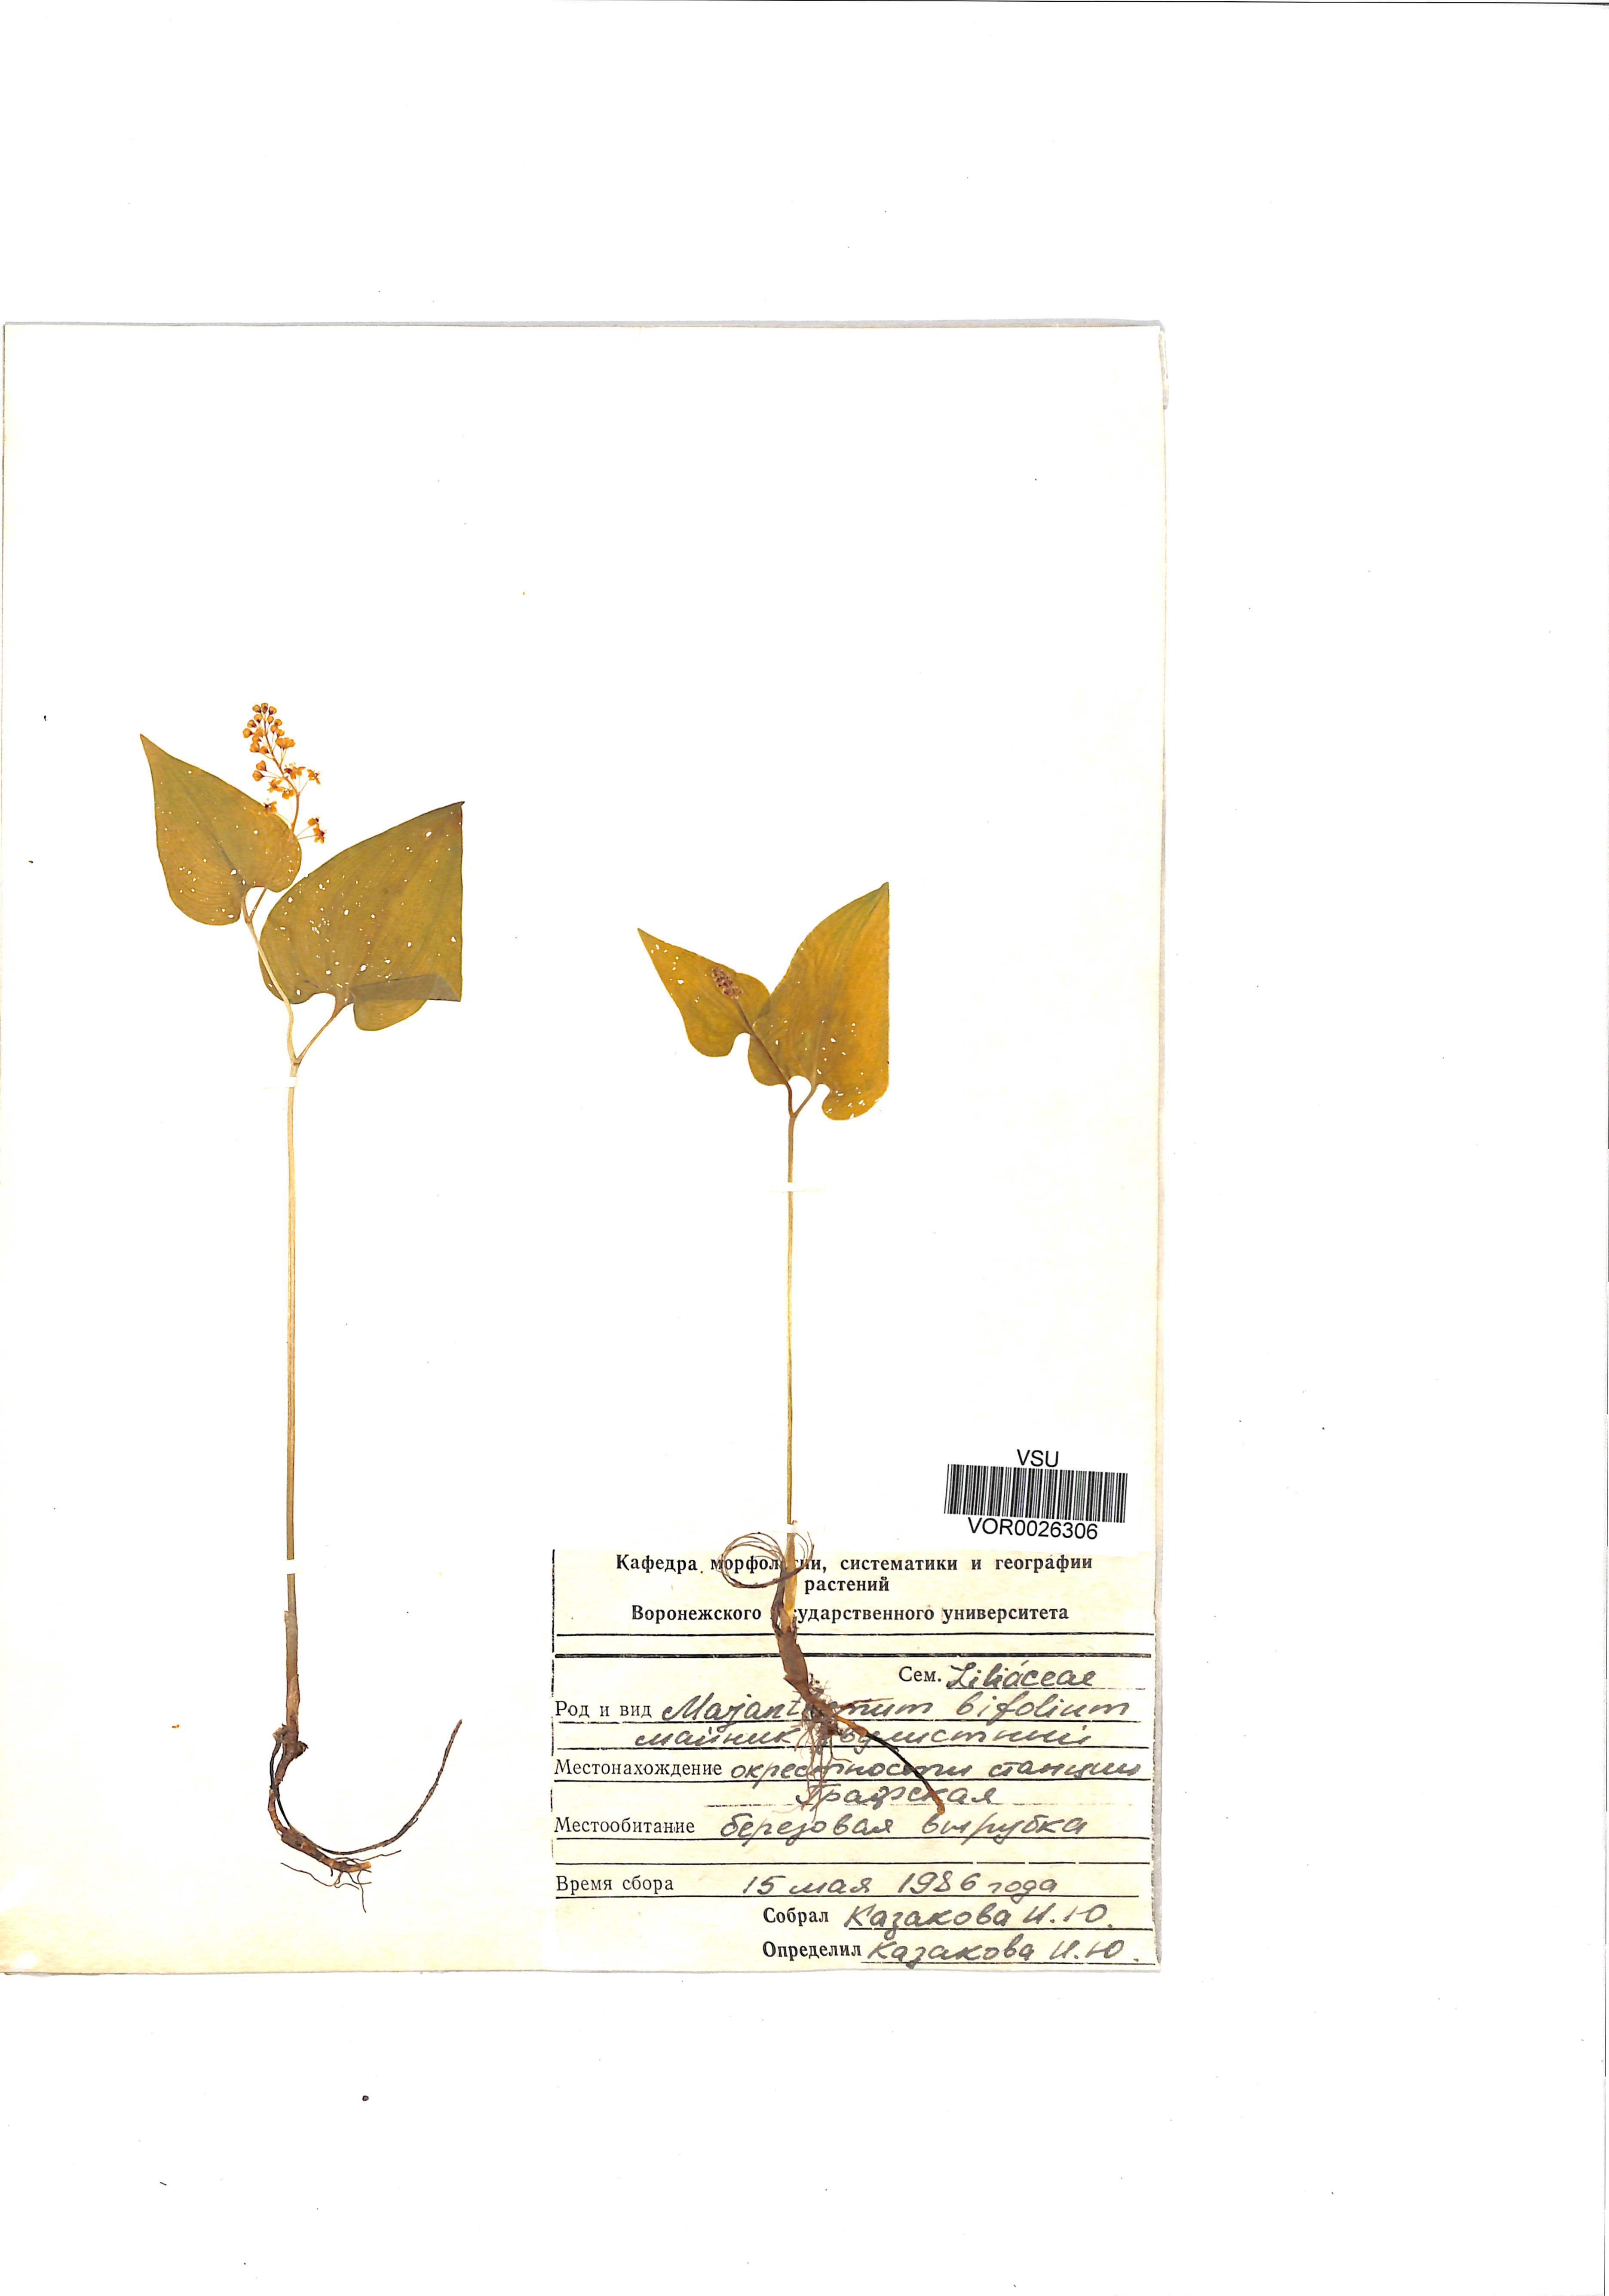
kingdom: Plantae
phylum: Tracheophyta
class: Liliopsida
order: Asparagales
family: Asparagaceae
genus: Maianthemum
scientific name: Maianthemum bifolium
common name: May lily
